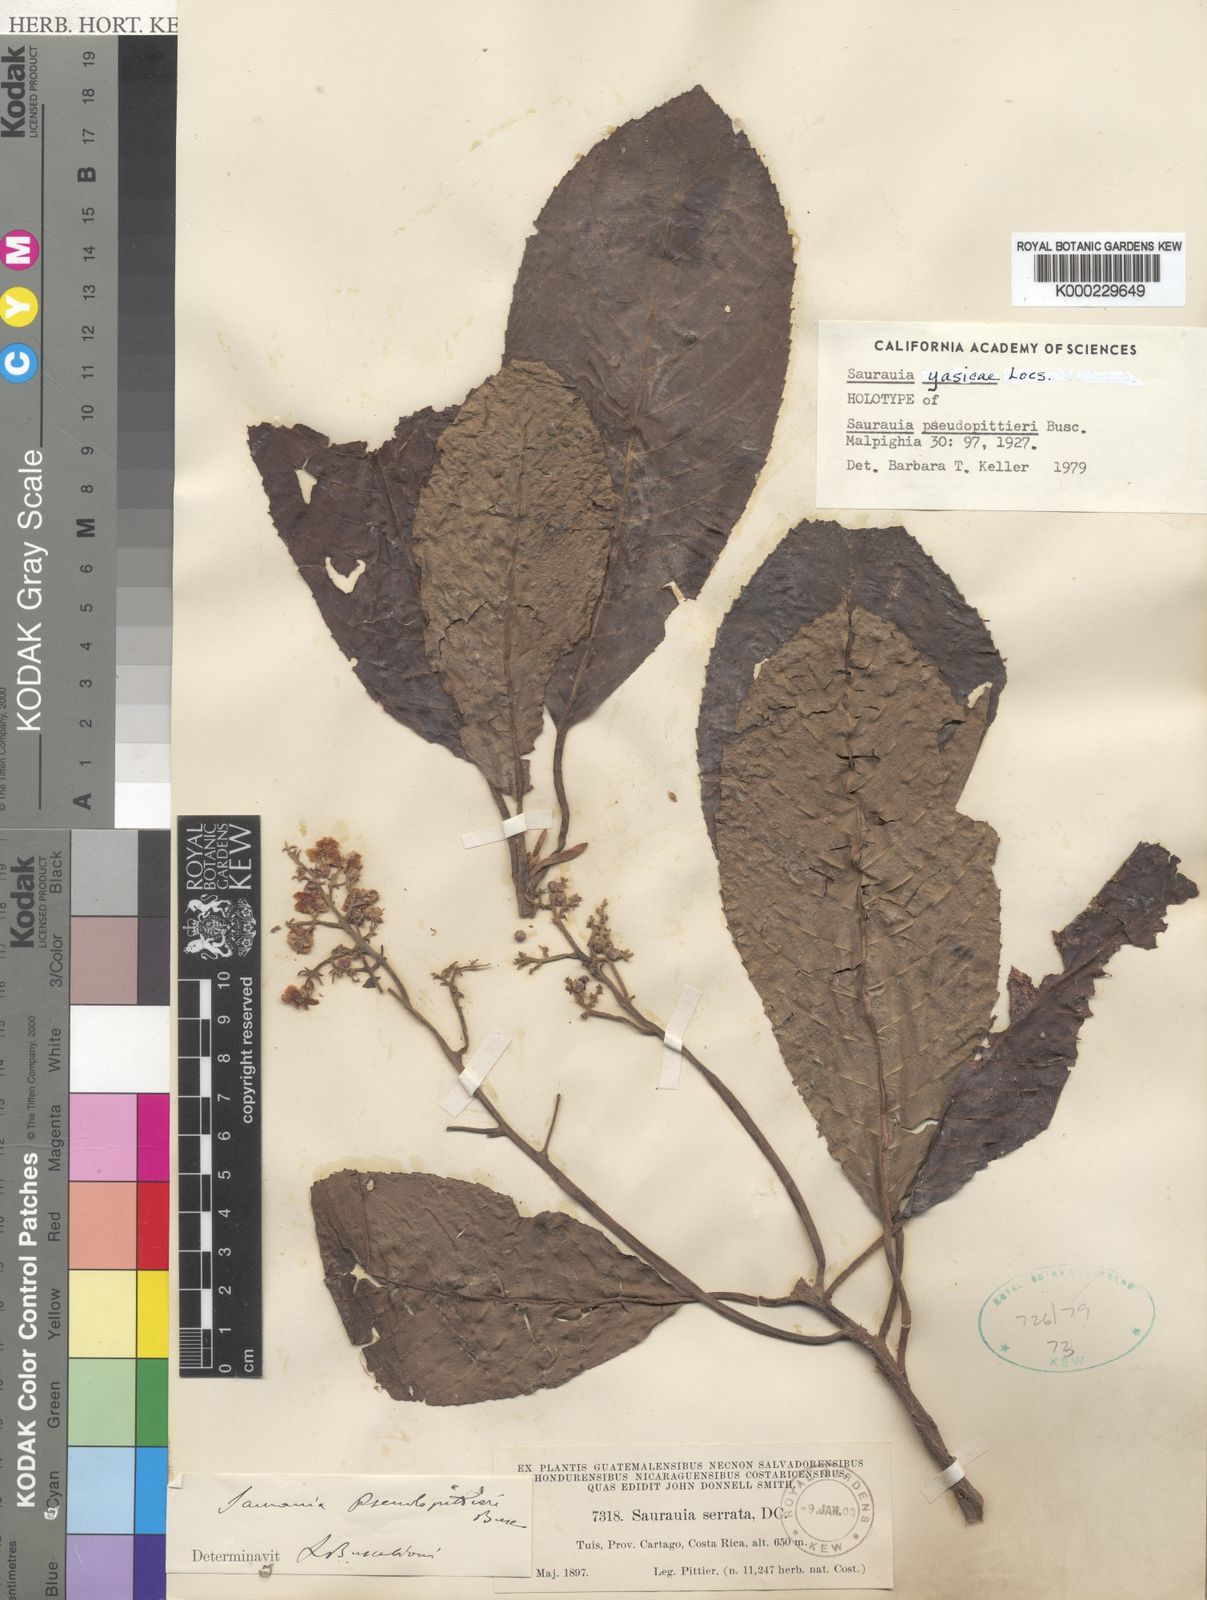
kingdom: Plantae
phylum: Tracheophyta
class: Magnoliopsida
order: Ericales
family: Actinidiaceae
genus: Saurauia
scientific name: Saurauia yasicae
